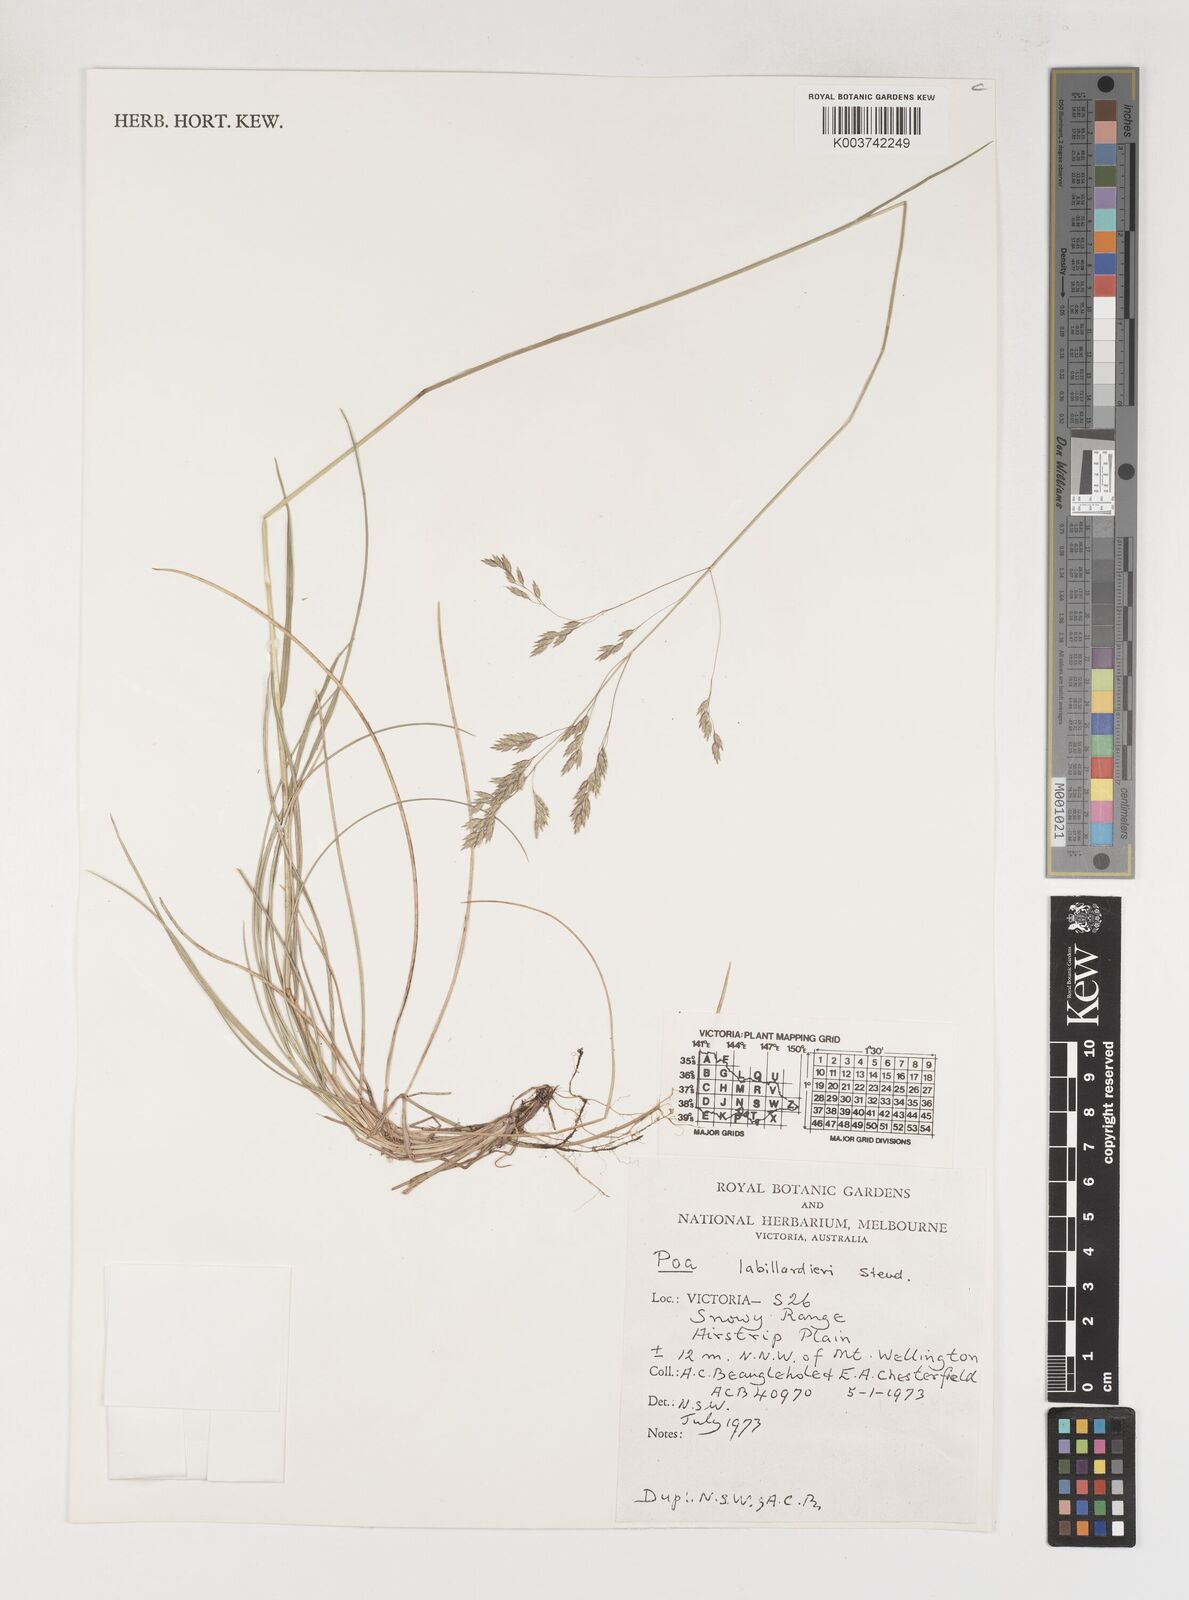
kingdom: Plantae
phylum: Tracheophyta
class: Liliopsida
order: Poales
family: Poaceae
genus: Poa
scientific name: Poa labillardierei
